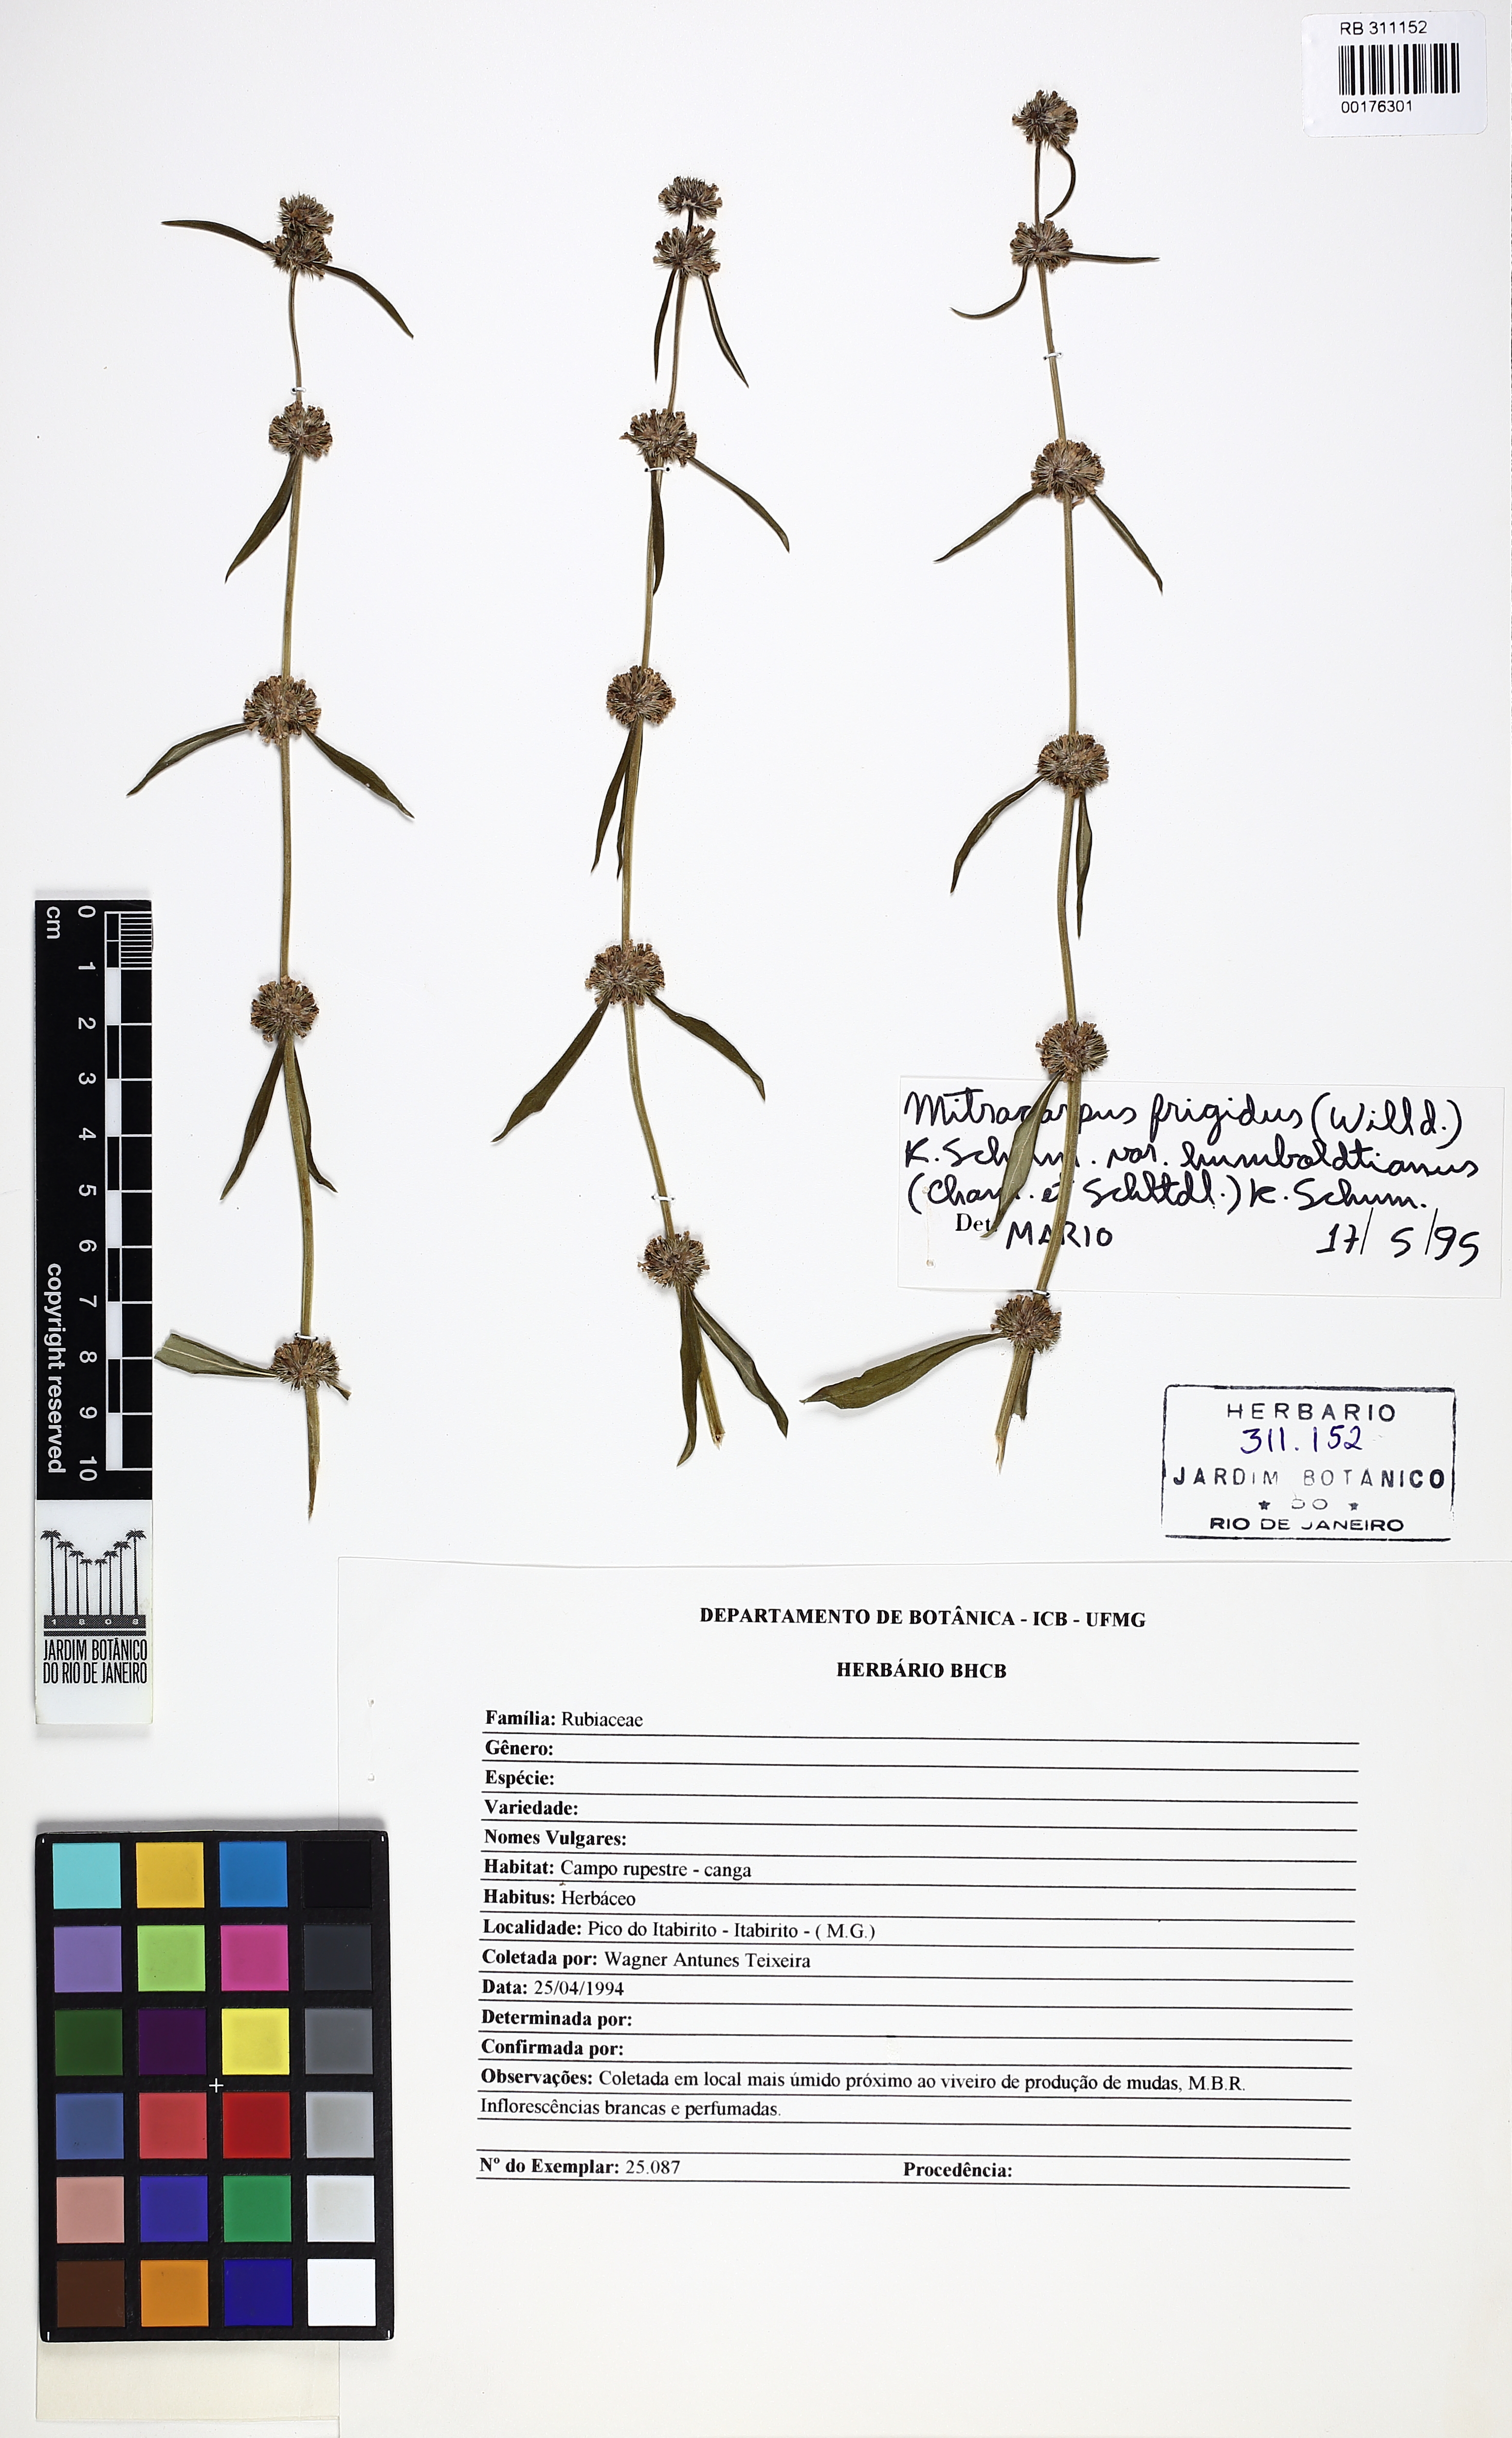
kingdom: Plantae
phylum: Tracheophyta
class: Magnoliopsida
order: Gentianales
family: Rubiaceae
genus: Mitracarpus
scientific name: Mitracarpus frigidus
